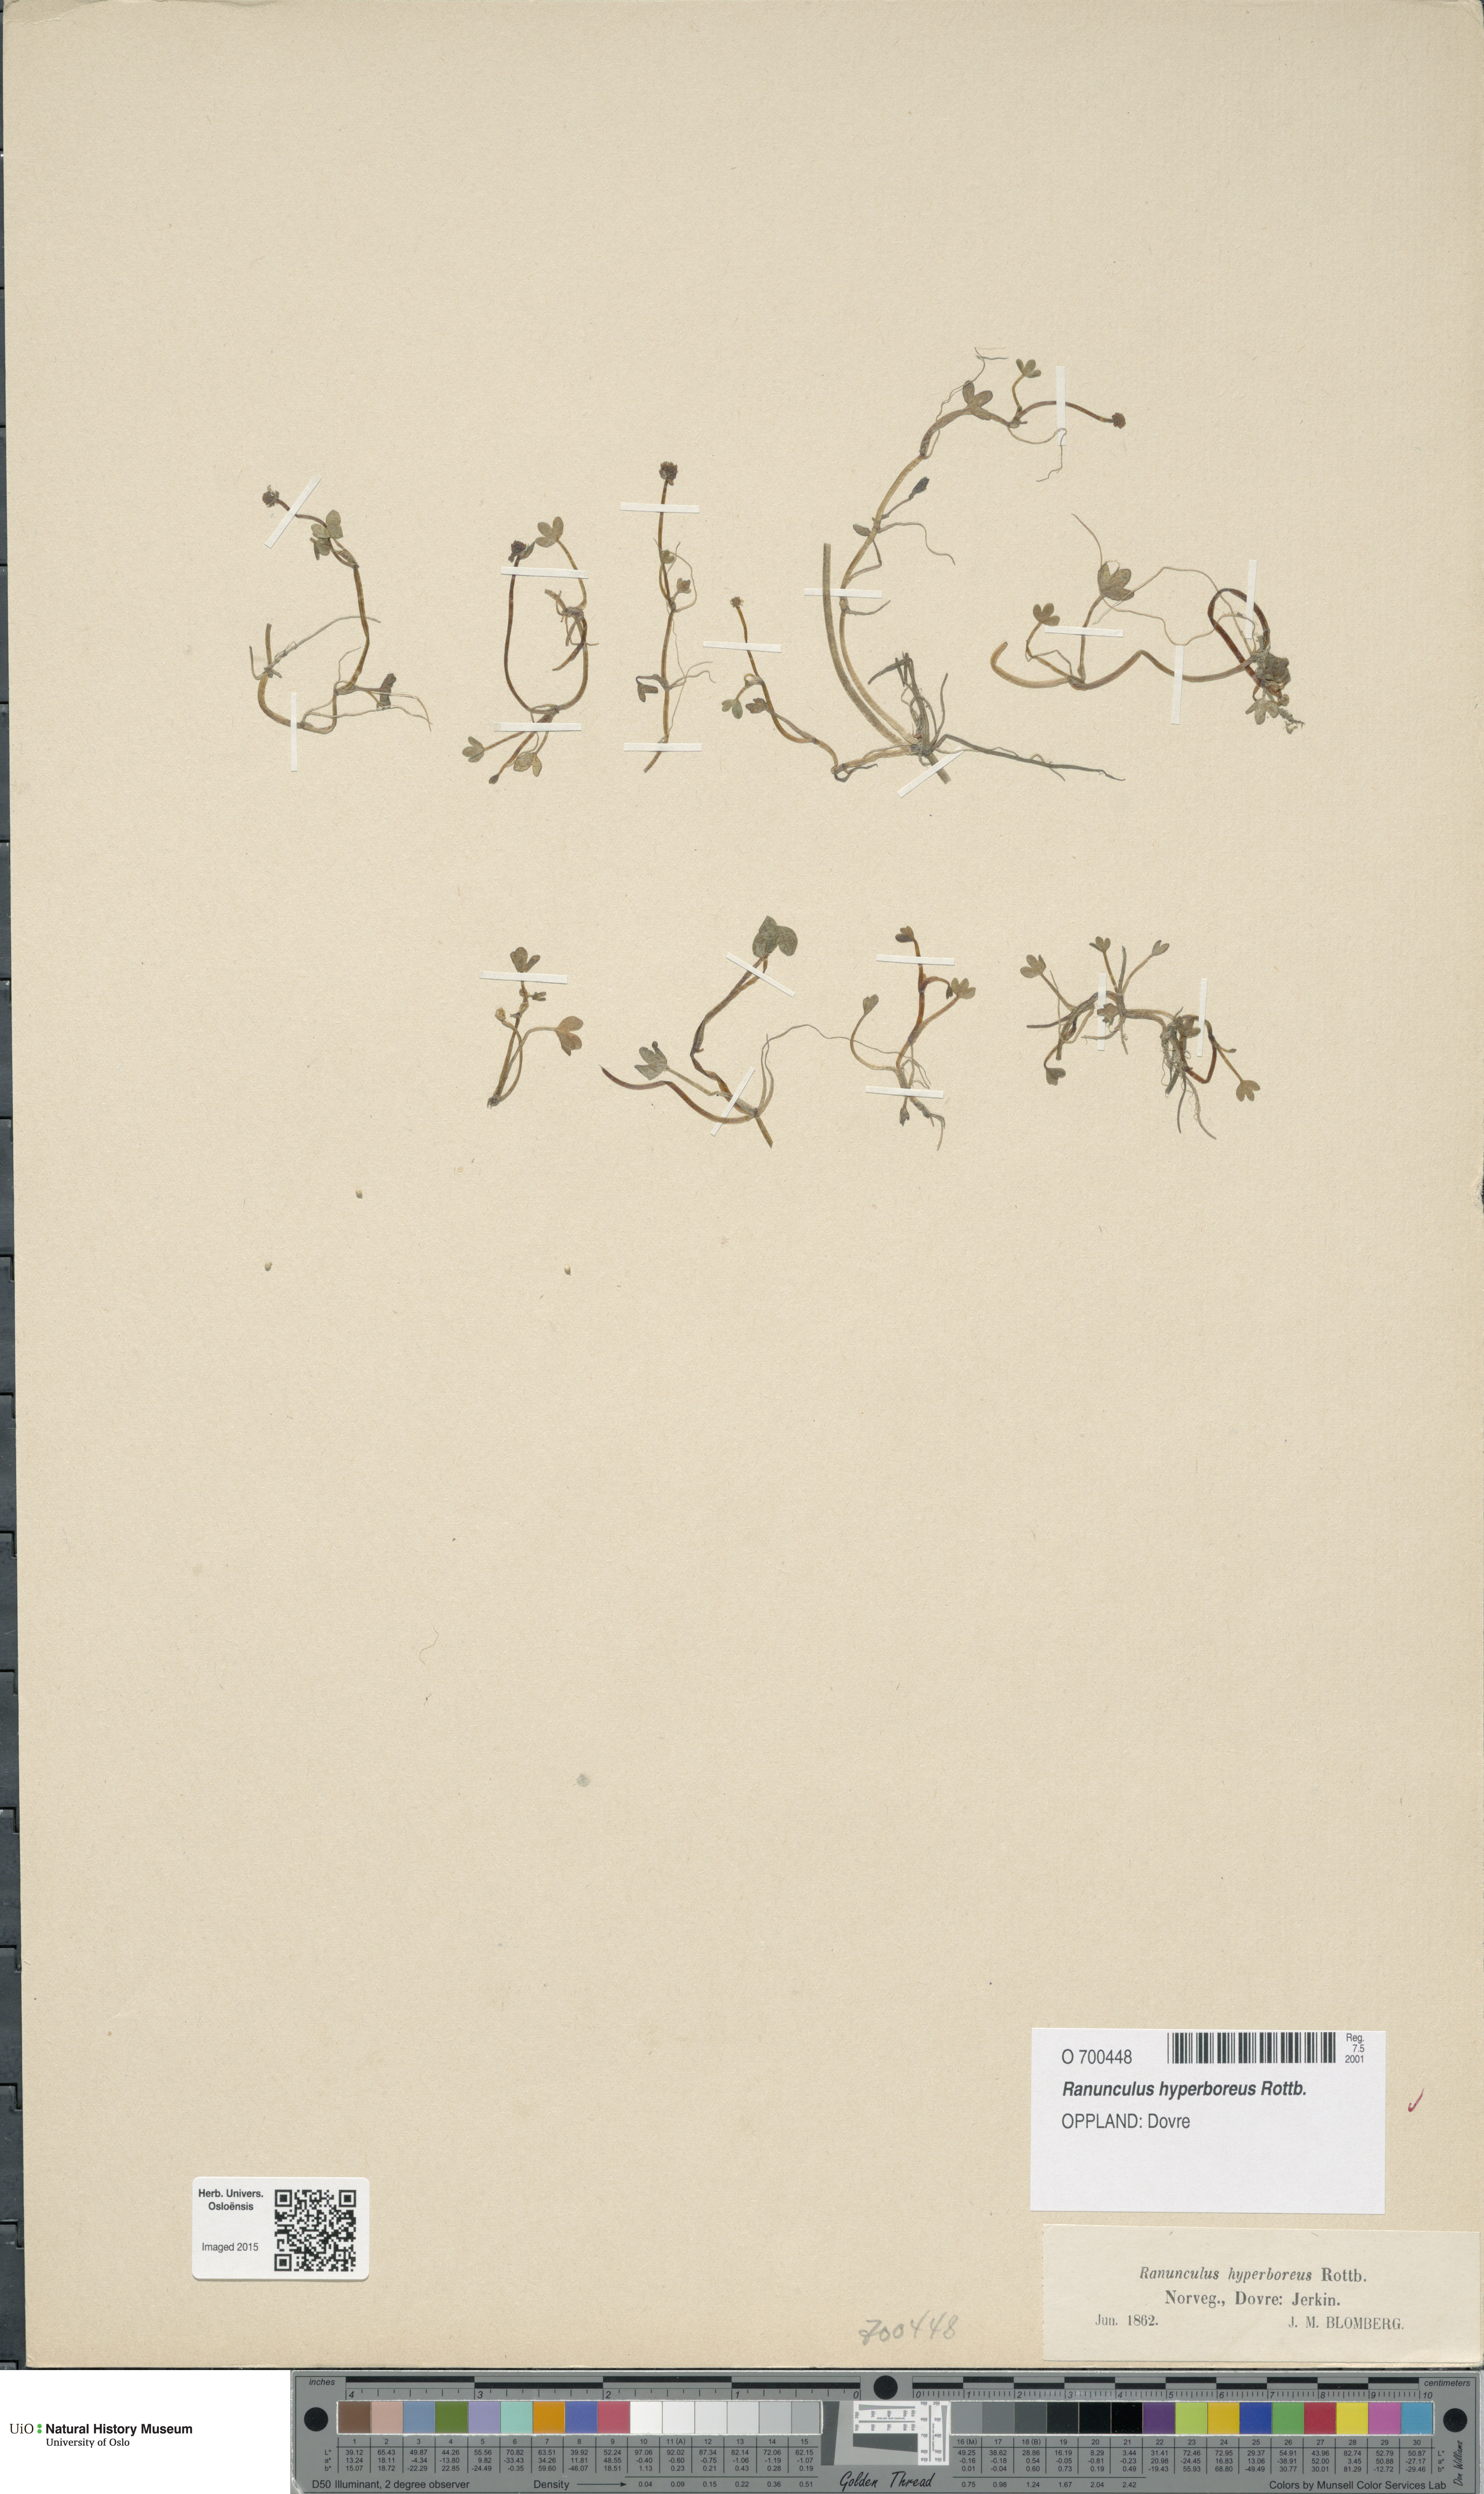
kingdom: Plantae
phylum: Tracheophyta
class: Magnoliopsida
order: Ranunculales
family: Ranunculaceae
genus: Ranunculus
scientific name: Ranunculus hyperboreus
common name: Arctic buttercup
